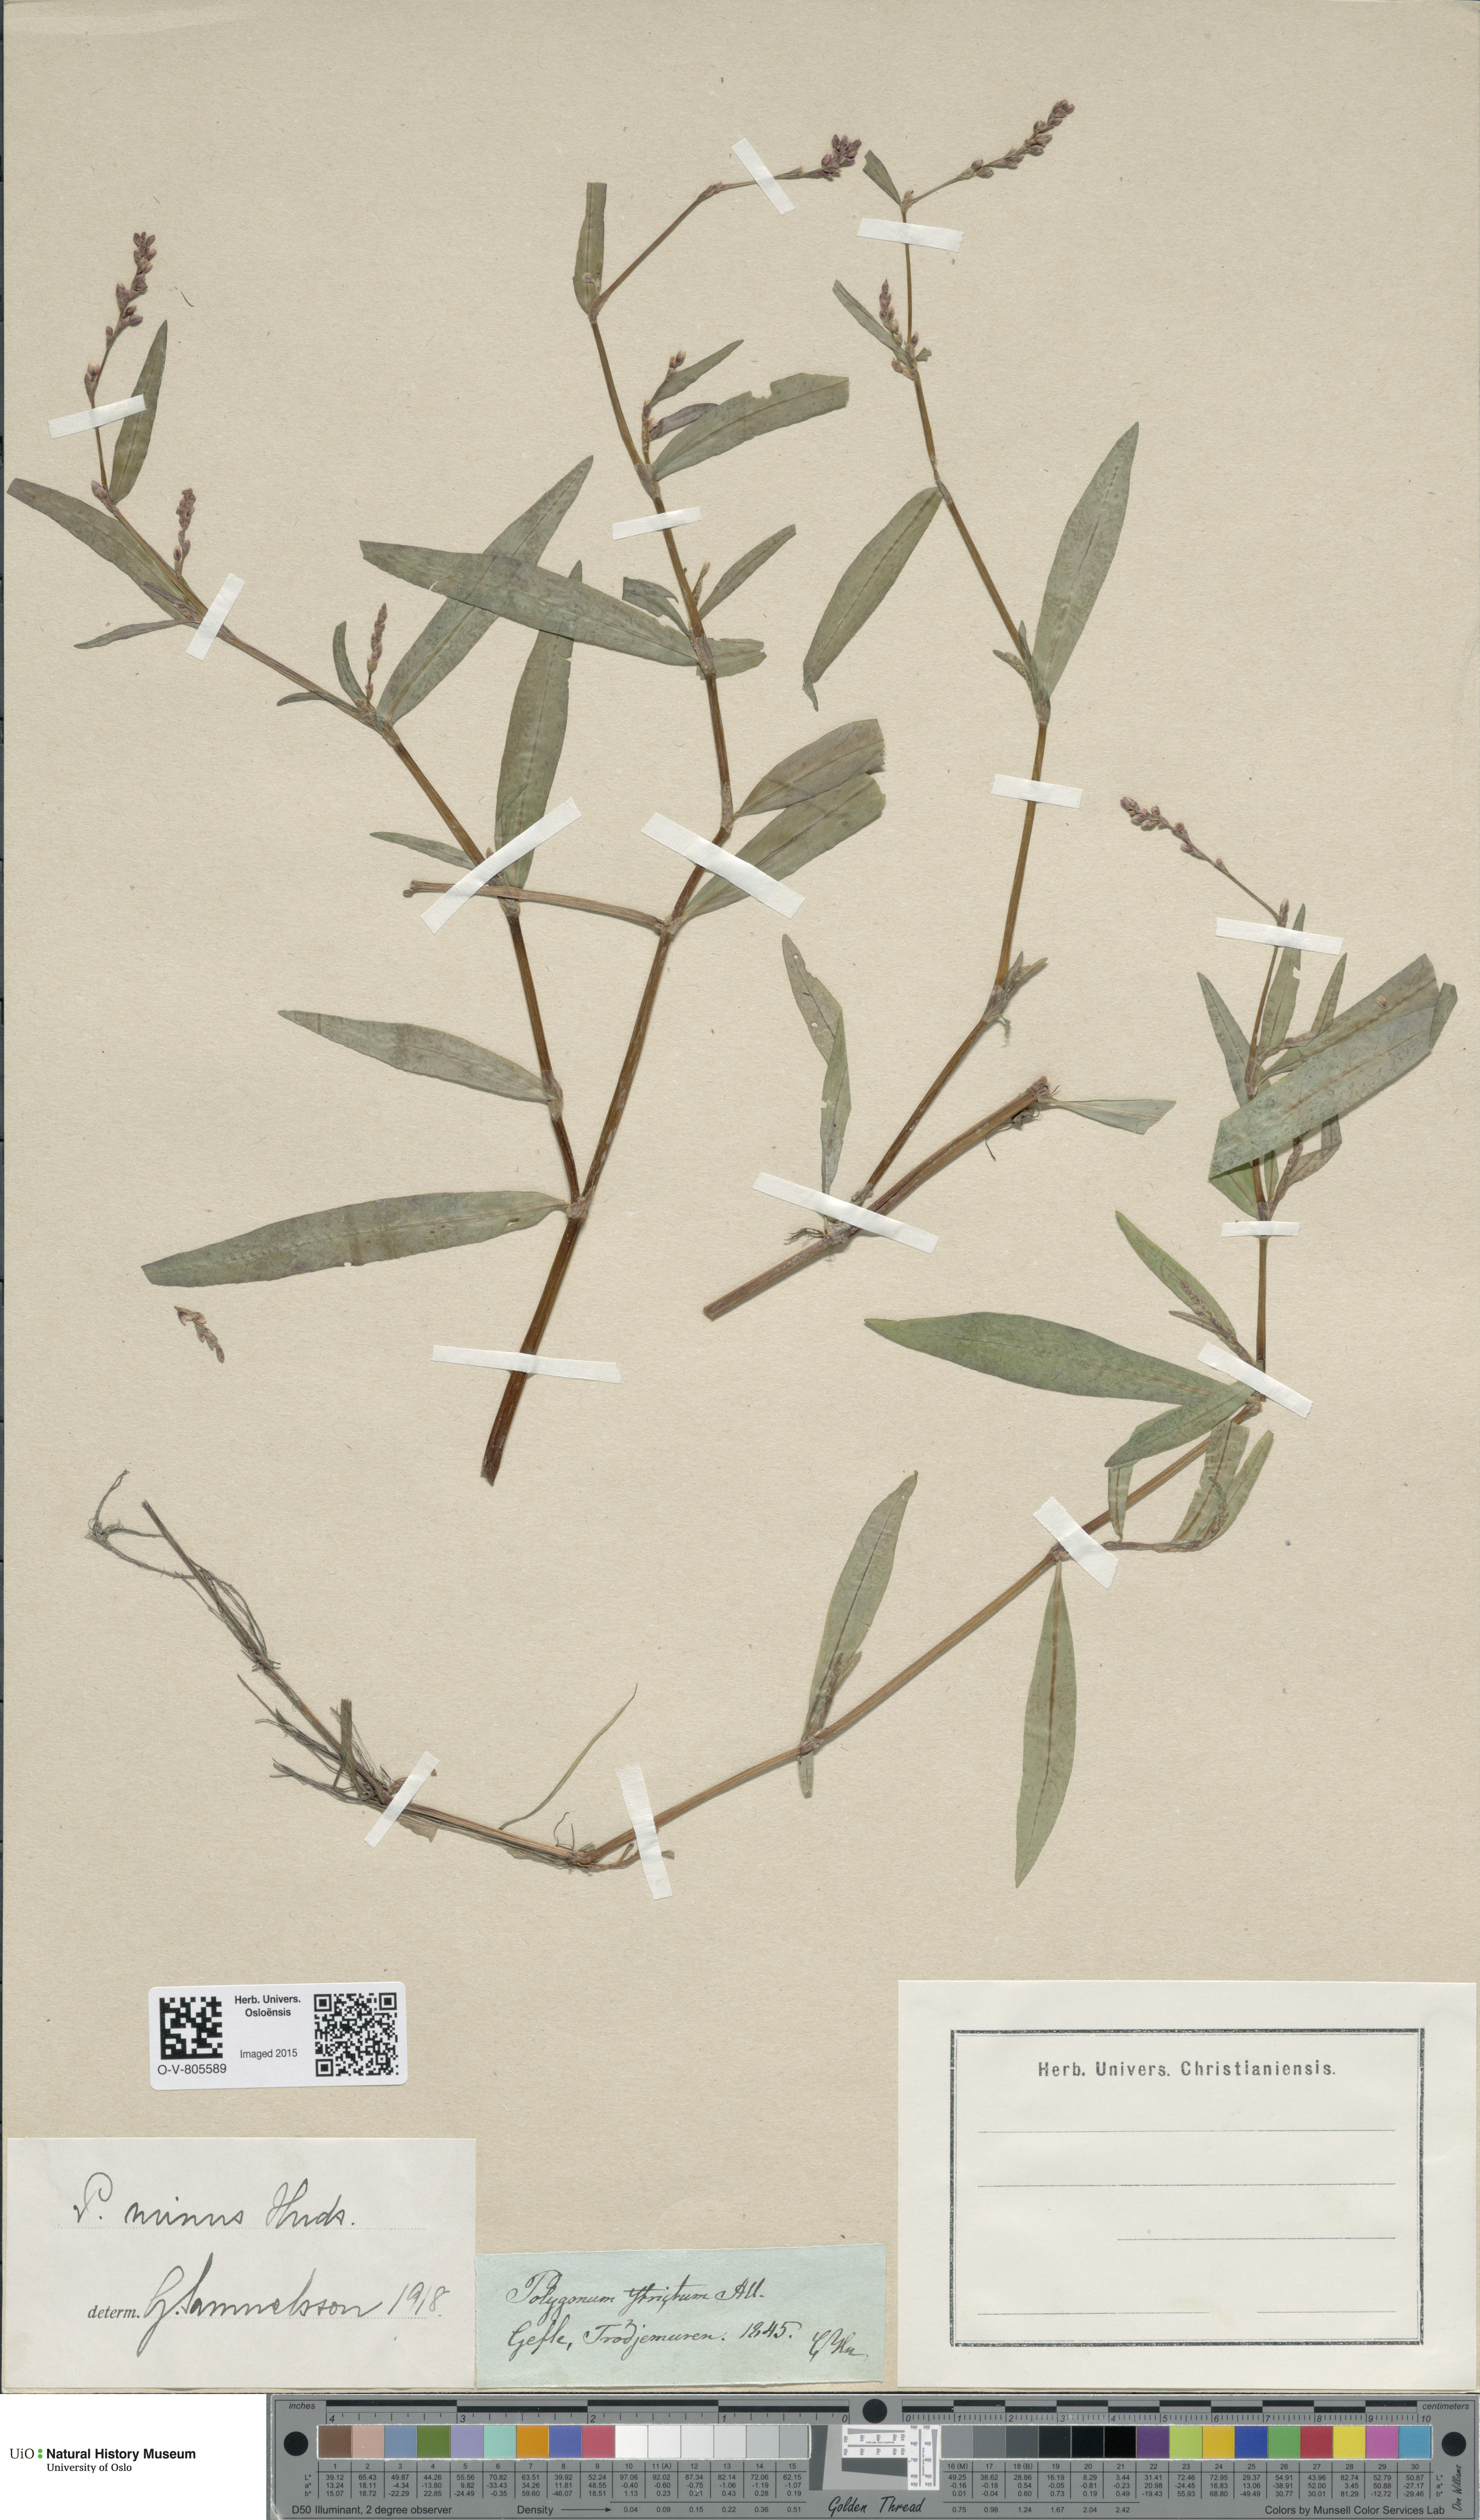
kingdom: Plantae
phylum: Tracheophyta
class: Magnoliopsida
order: Caryophyllales
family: Polygonaceae
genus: Persicaria
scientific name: Persicaria minor
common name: Small water-pepper
